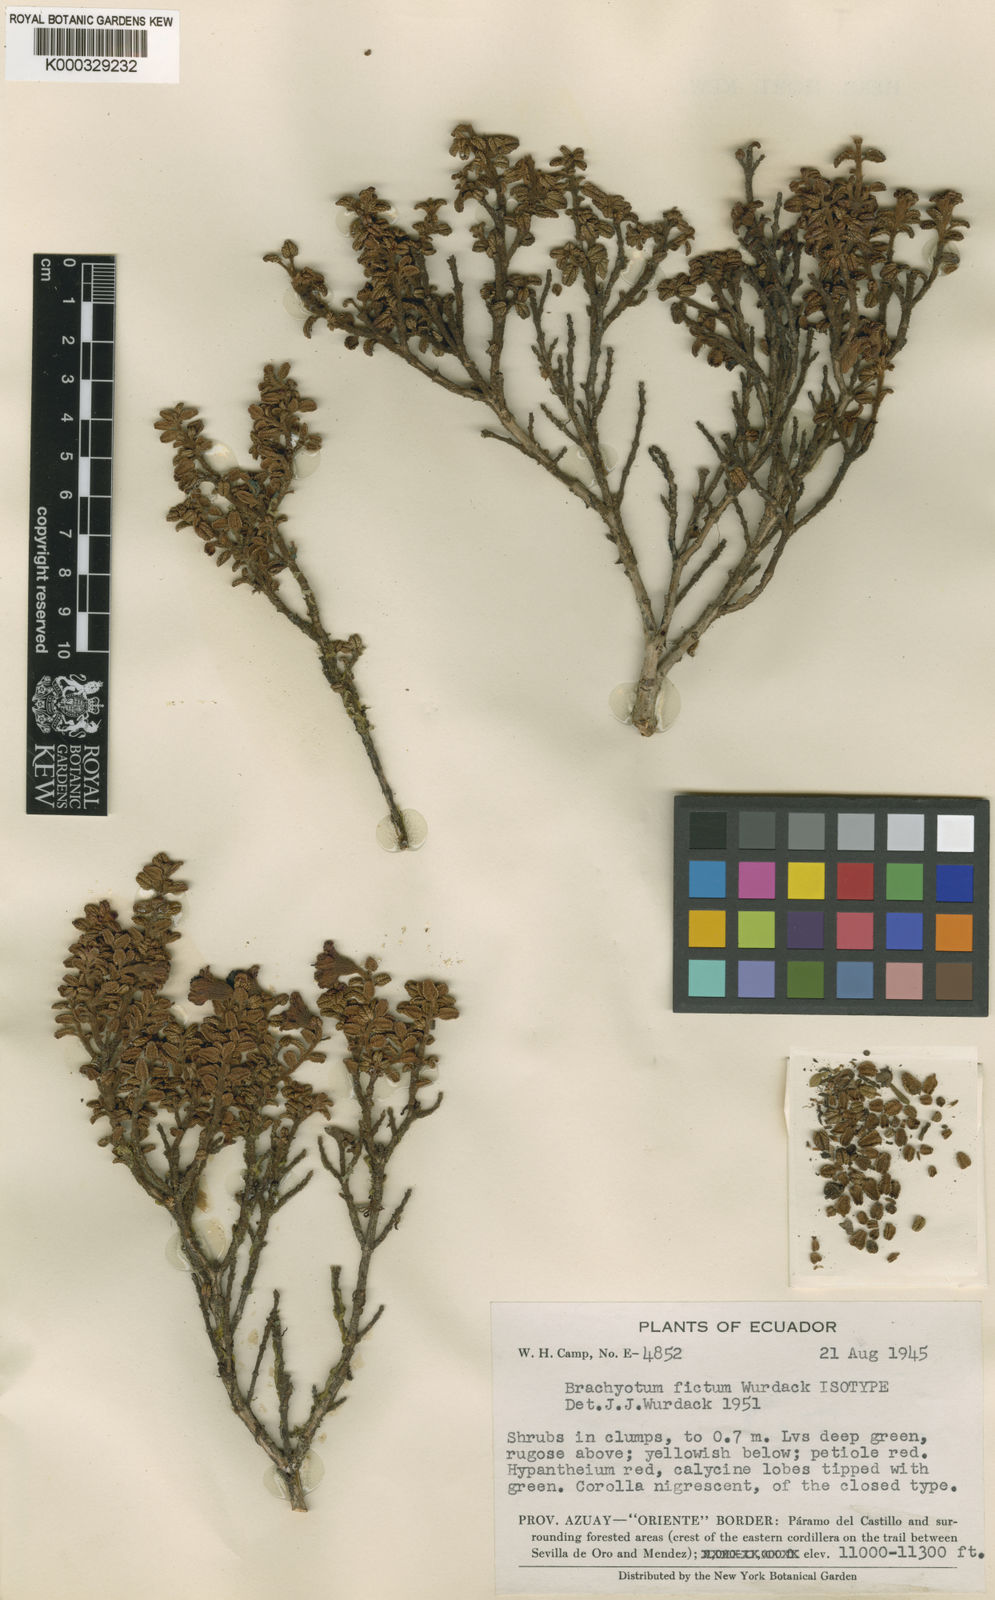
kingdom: Plantae
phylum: Tracheophyta
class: Magnoliopsida
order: Myrtales
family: Melastomataceae
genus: Brachyotum
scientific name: Brachyotum fictum
